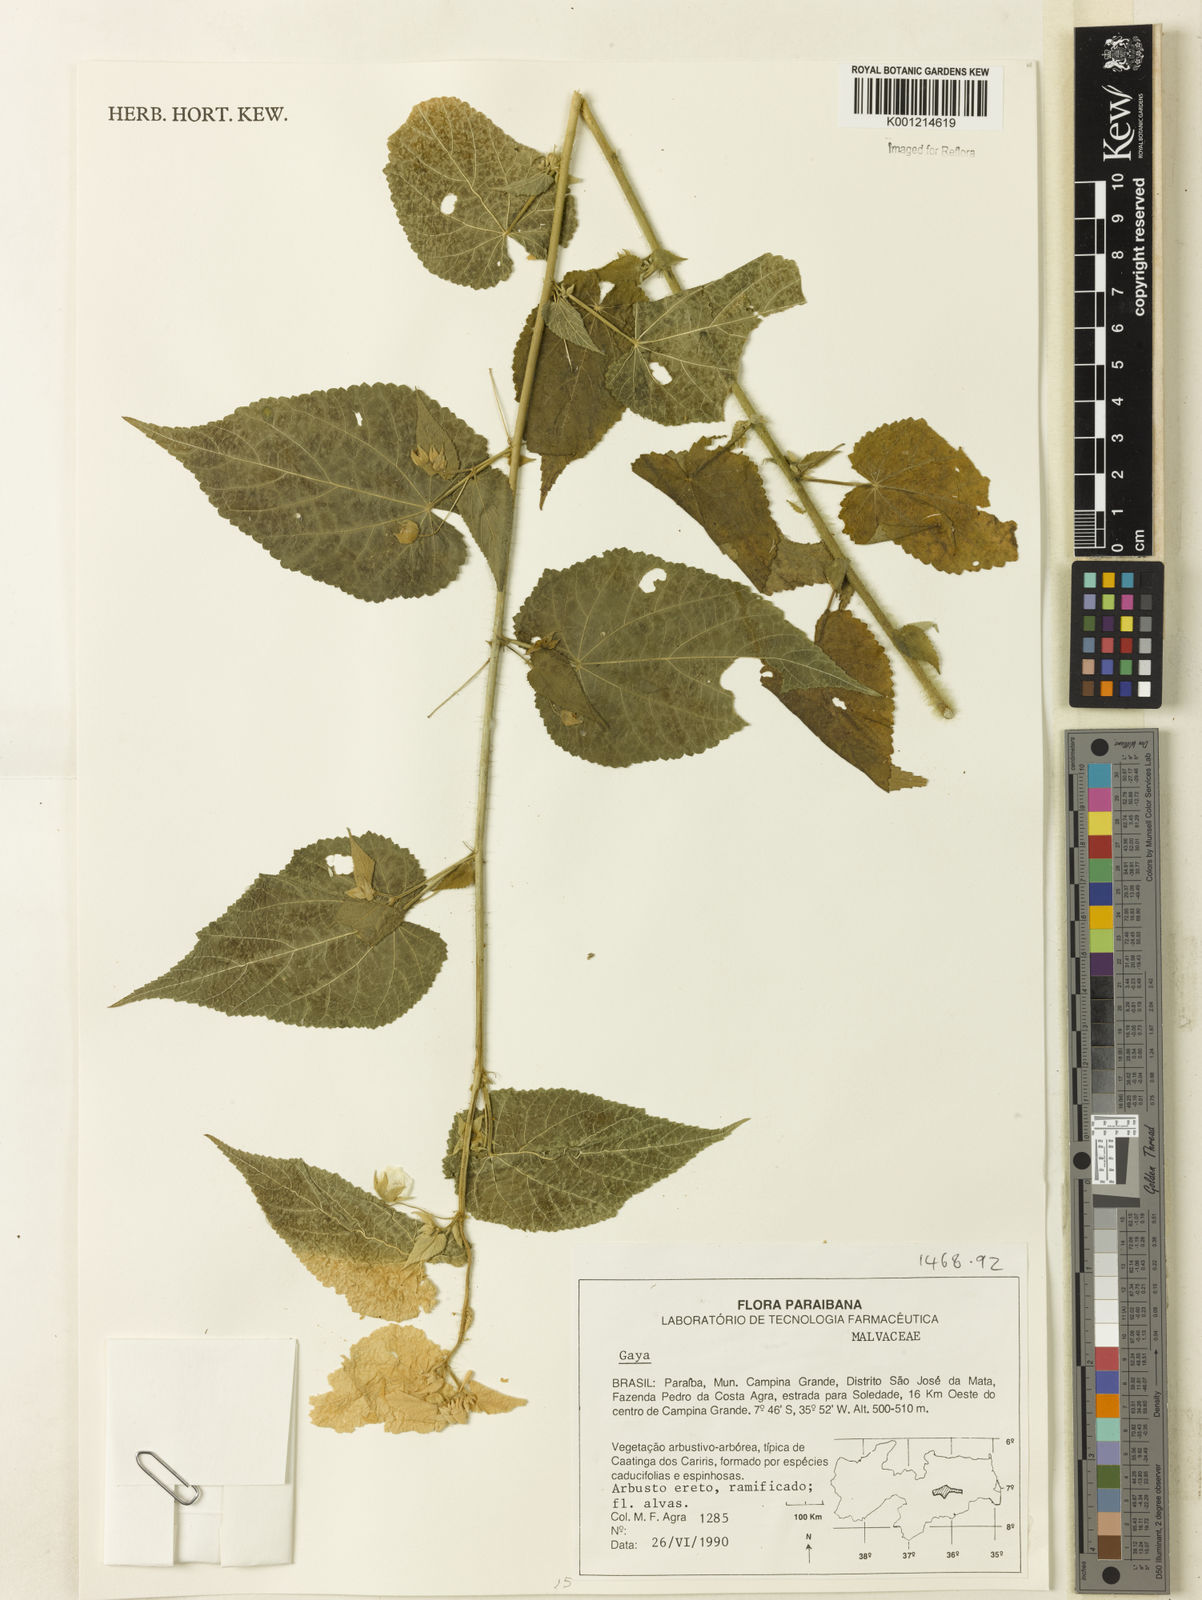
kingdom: Plantae
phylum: Tracheophyta
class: Magnoliopsida
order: Malvales
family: Malvaceae
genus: Gaya
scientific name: Gaya
